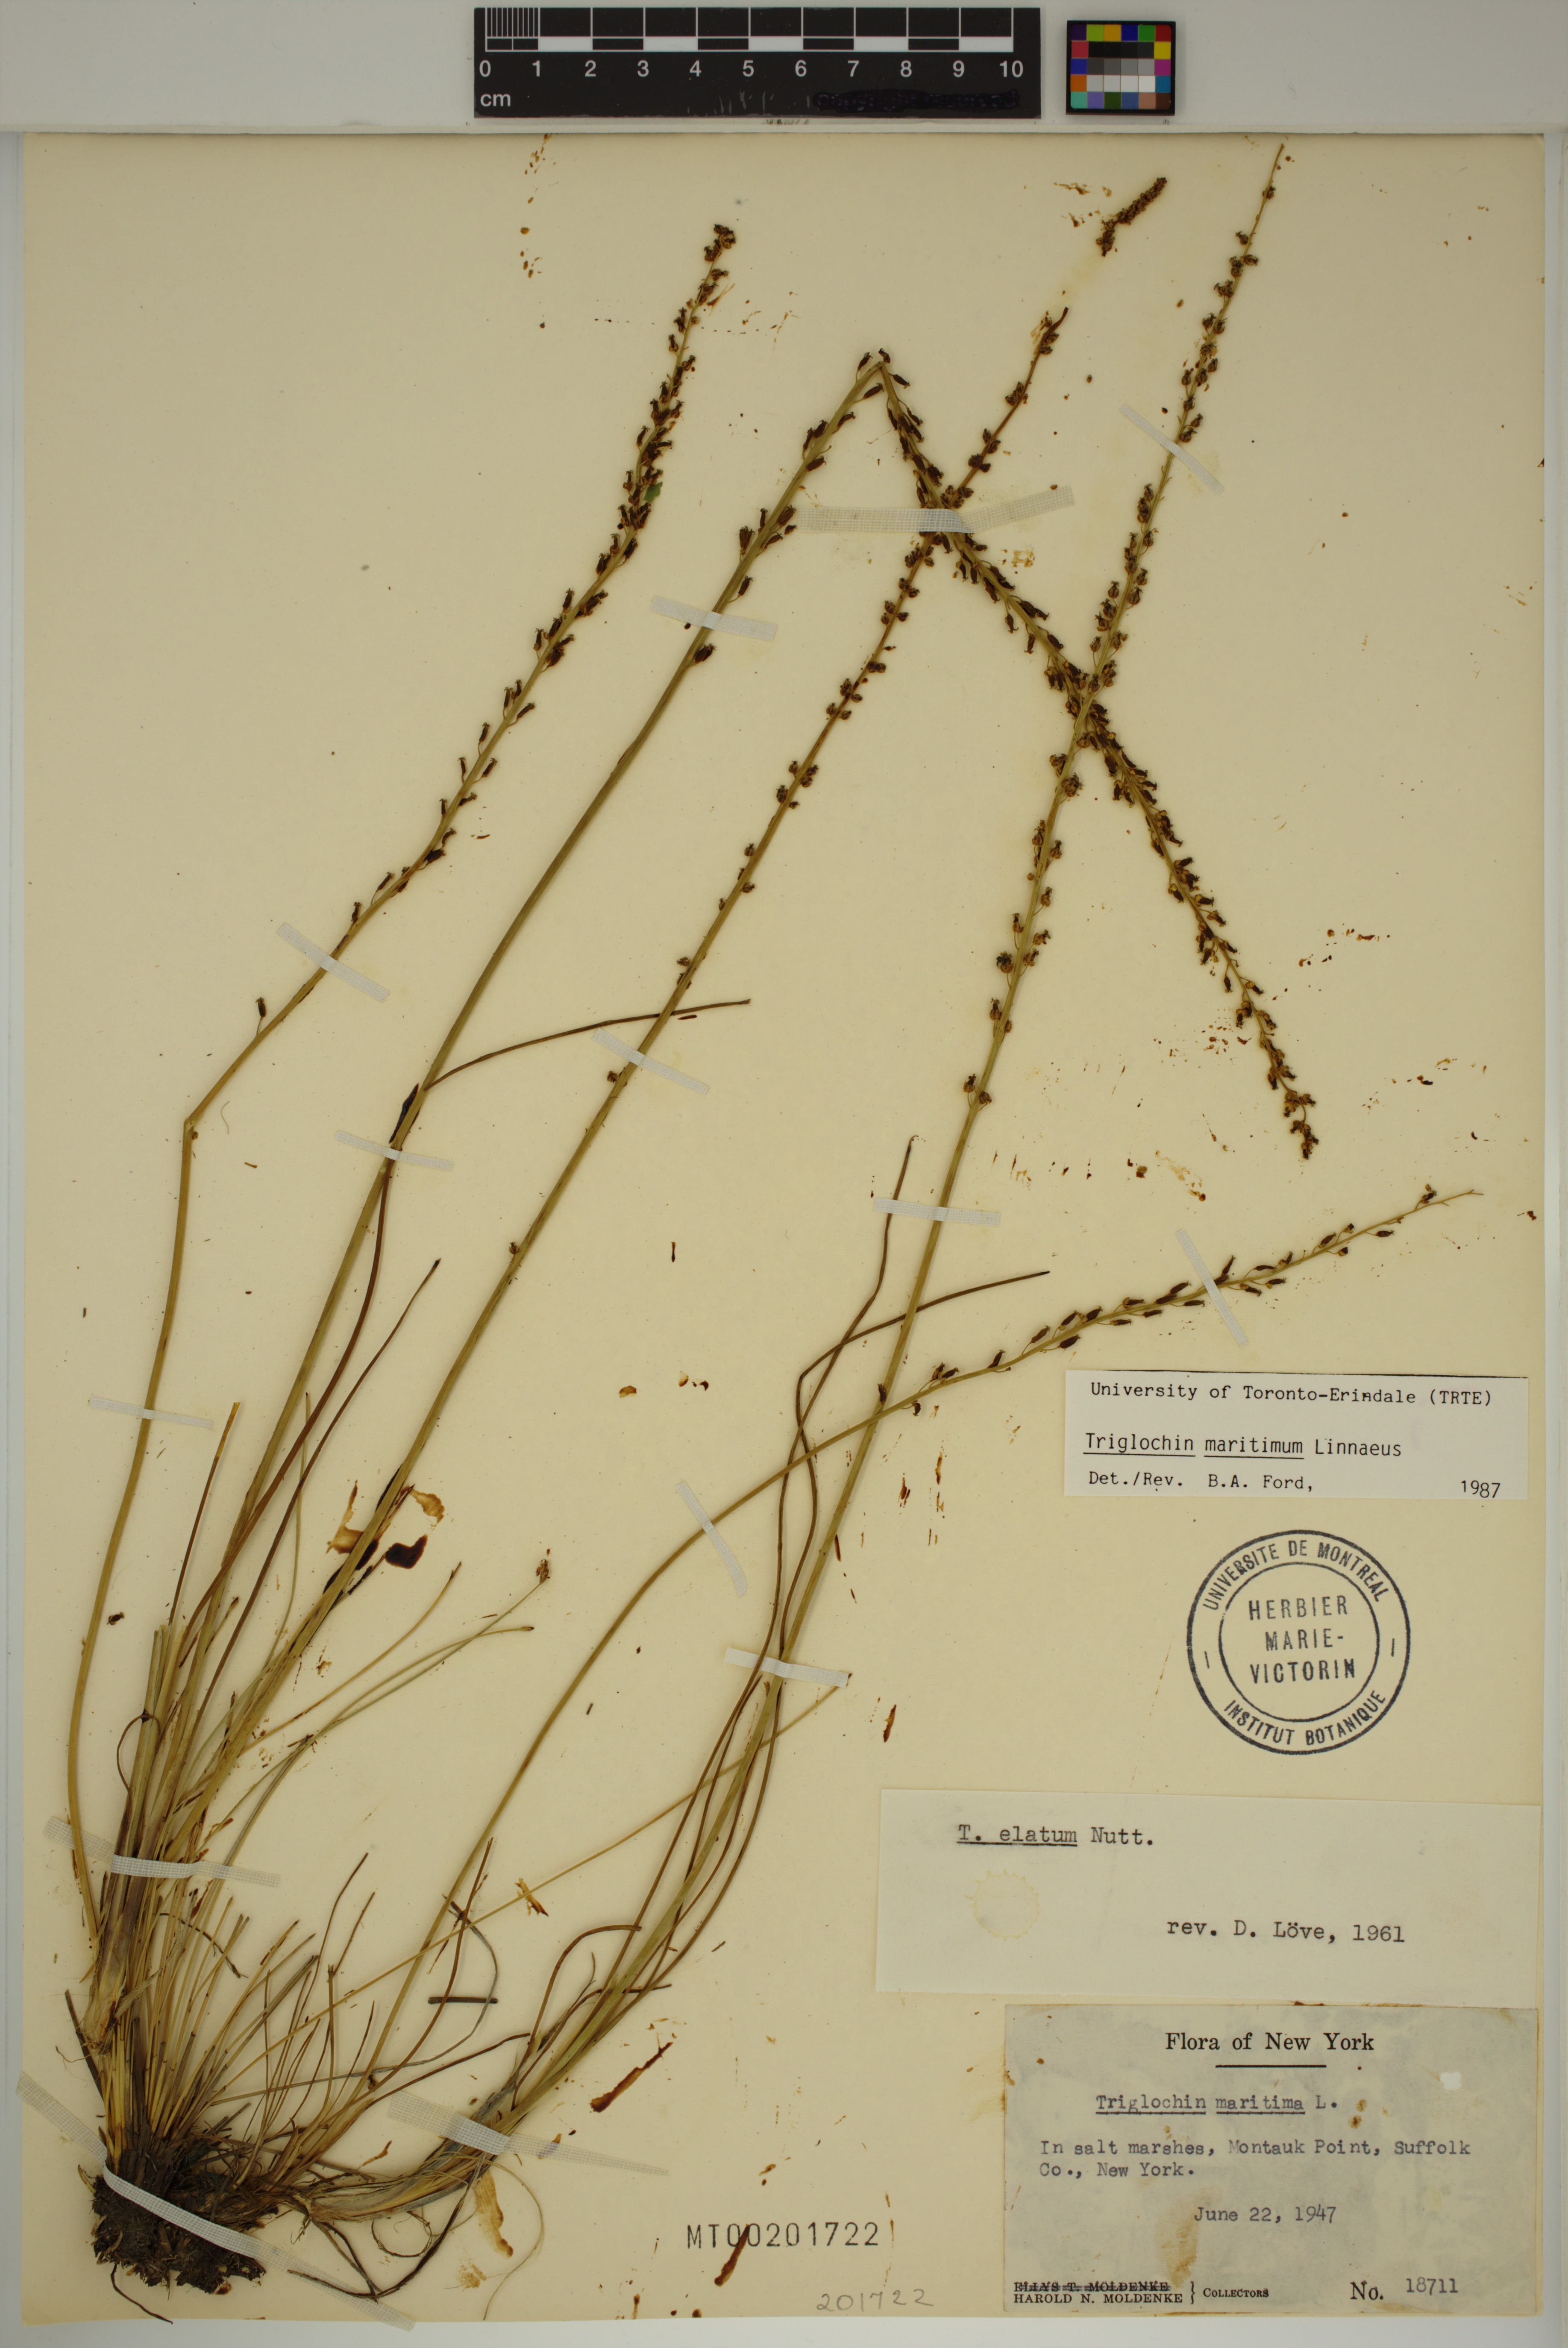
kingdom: Plantae
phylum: Tracheophyta
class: Liliopsida
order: Alismatales
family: Juncaginaceae
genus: Triglochin
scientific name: Triglochin maritima
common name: Sea arrowgrass
